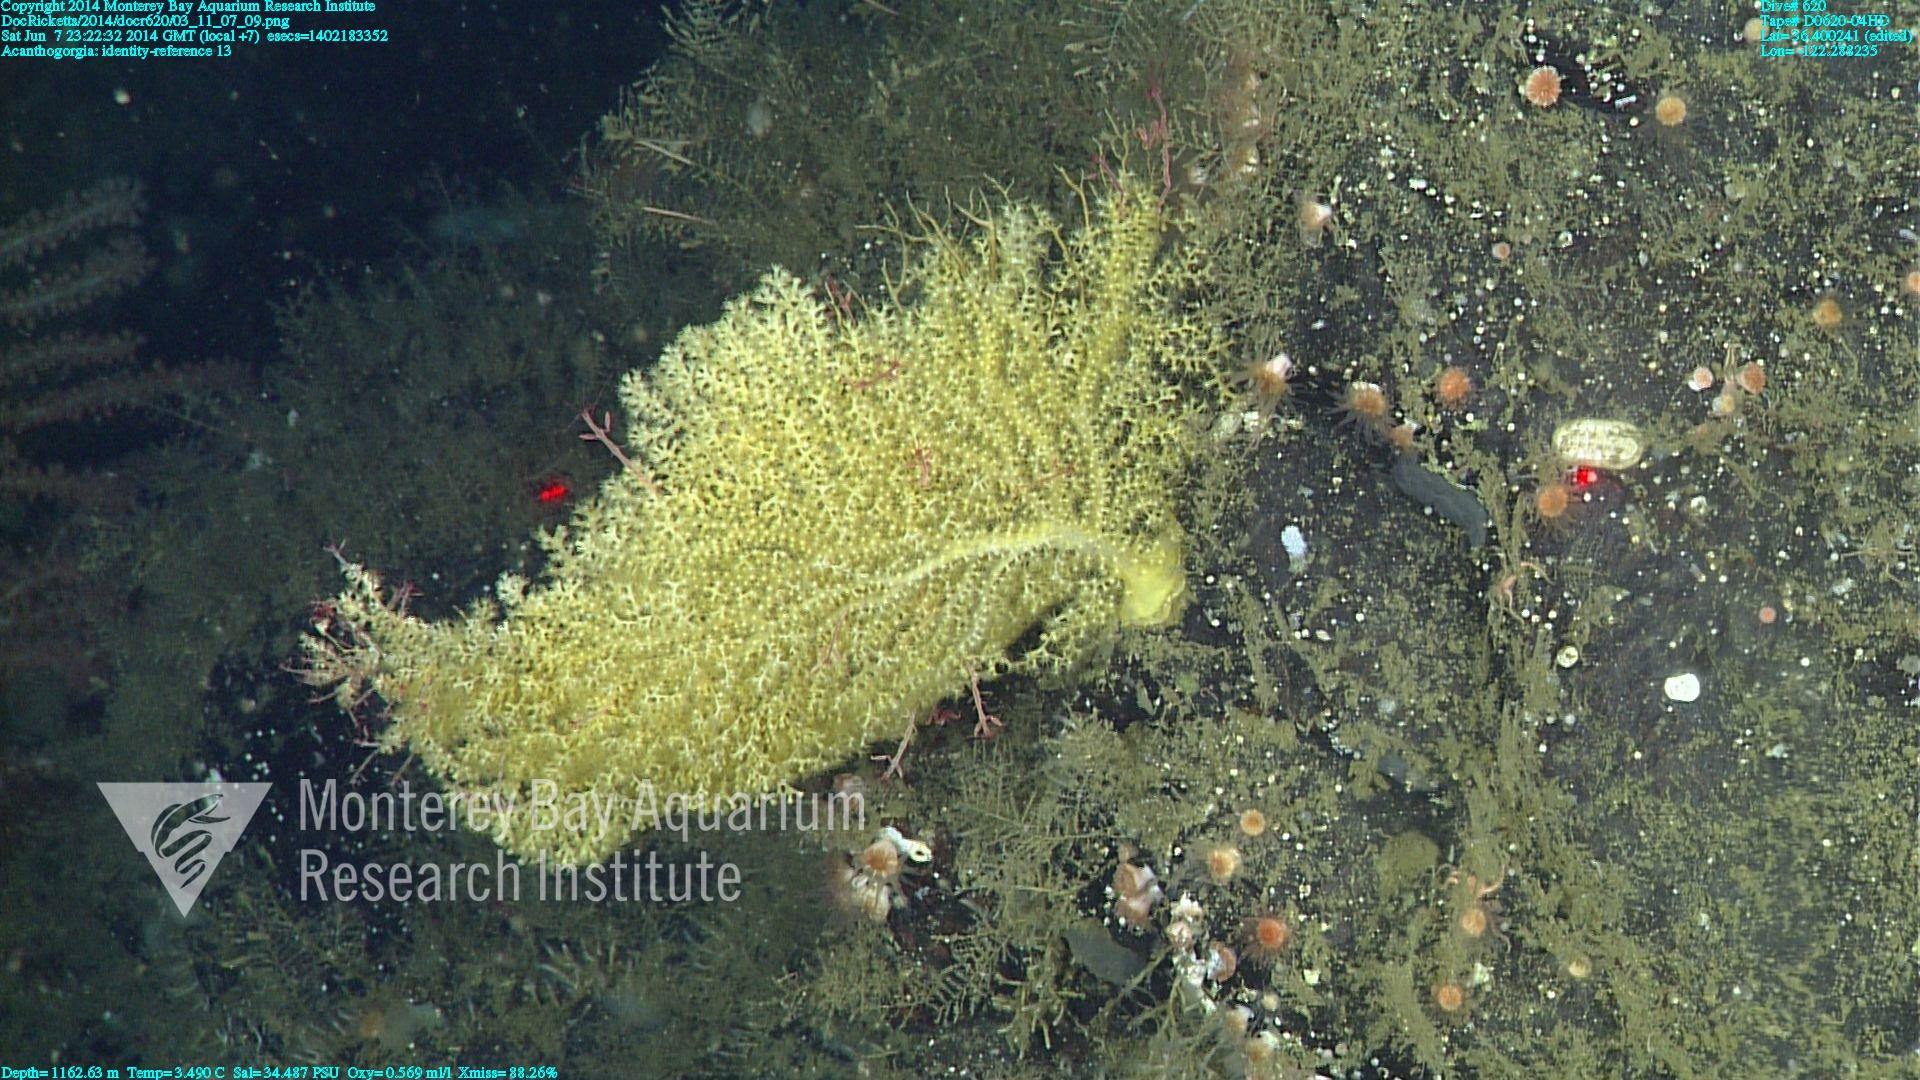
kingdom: Animalia
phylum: Cnidaria
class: Anthozoa
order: Malacalcyonacea
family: Paramuriceidae
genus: Acanthogorgia
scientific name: Acanthogorgia
